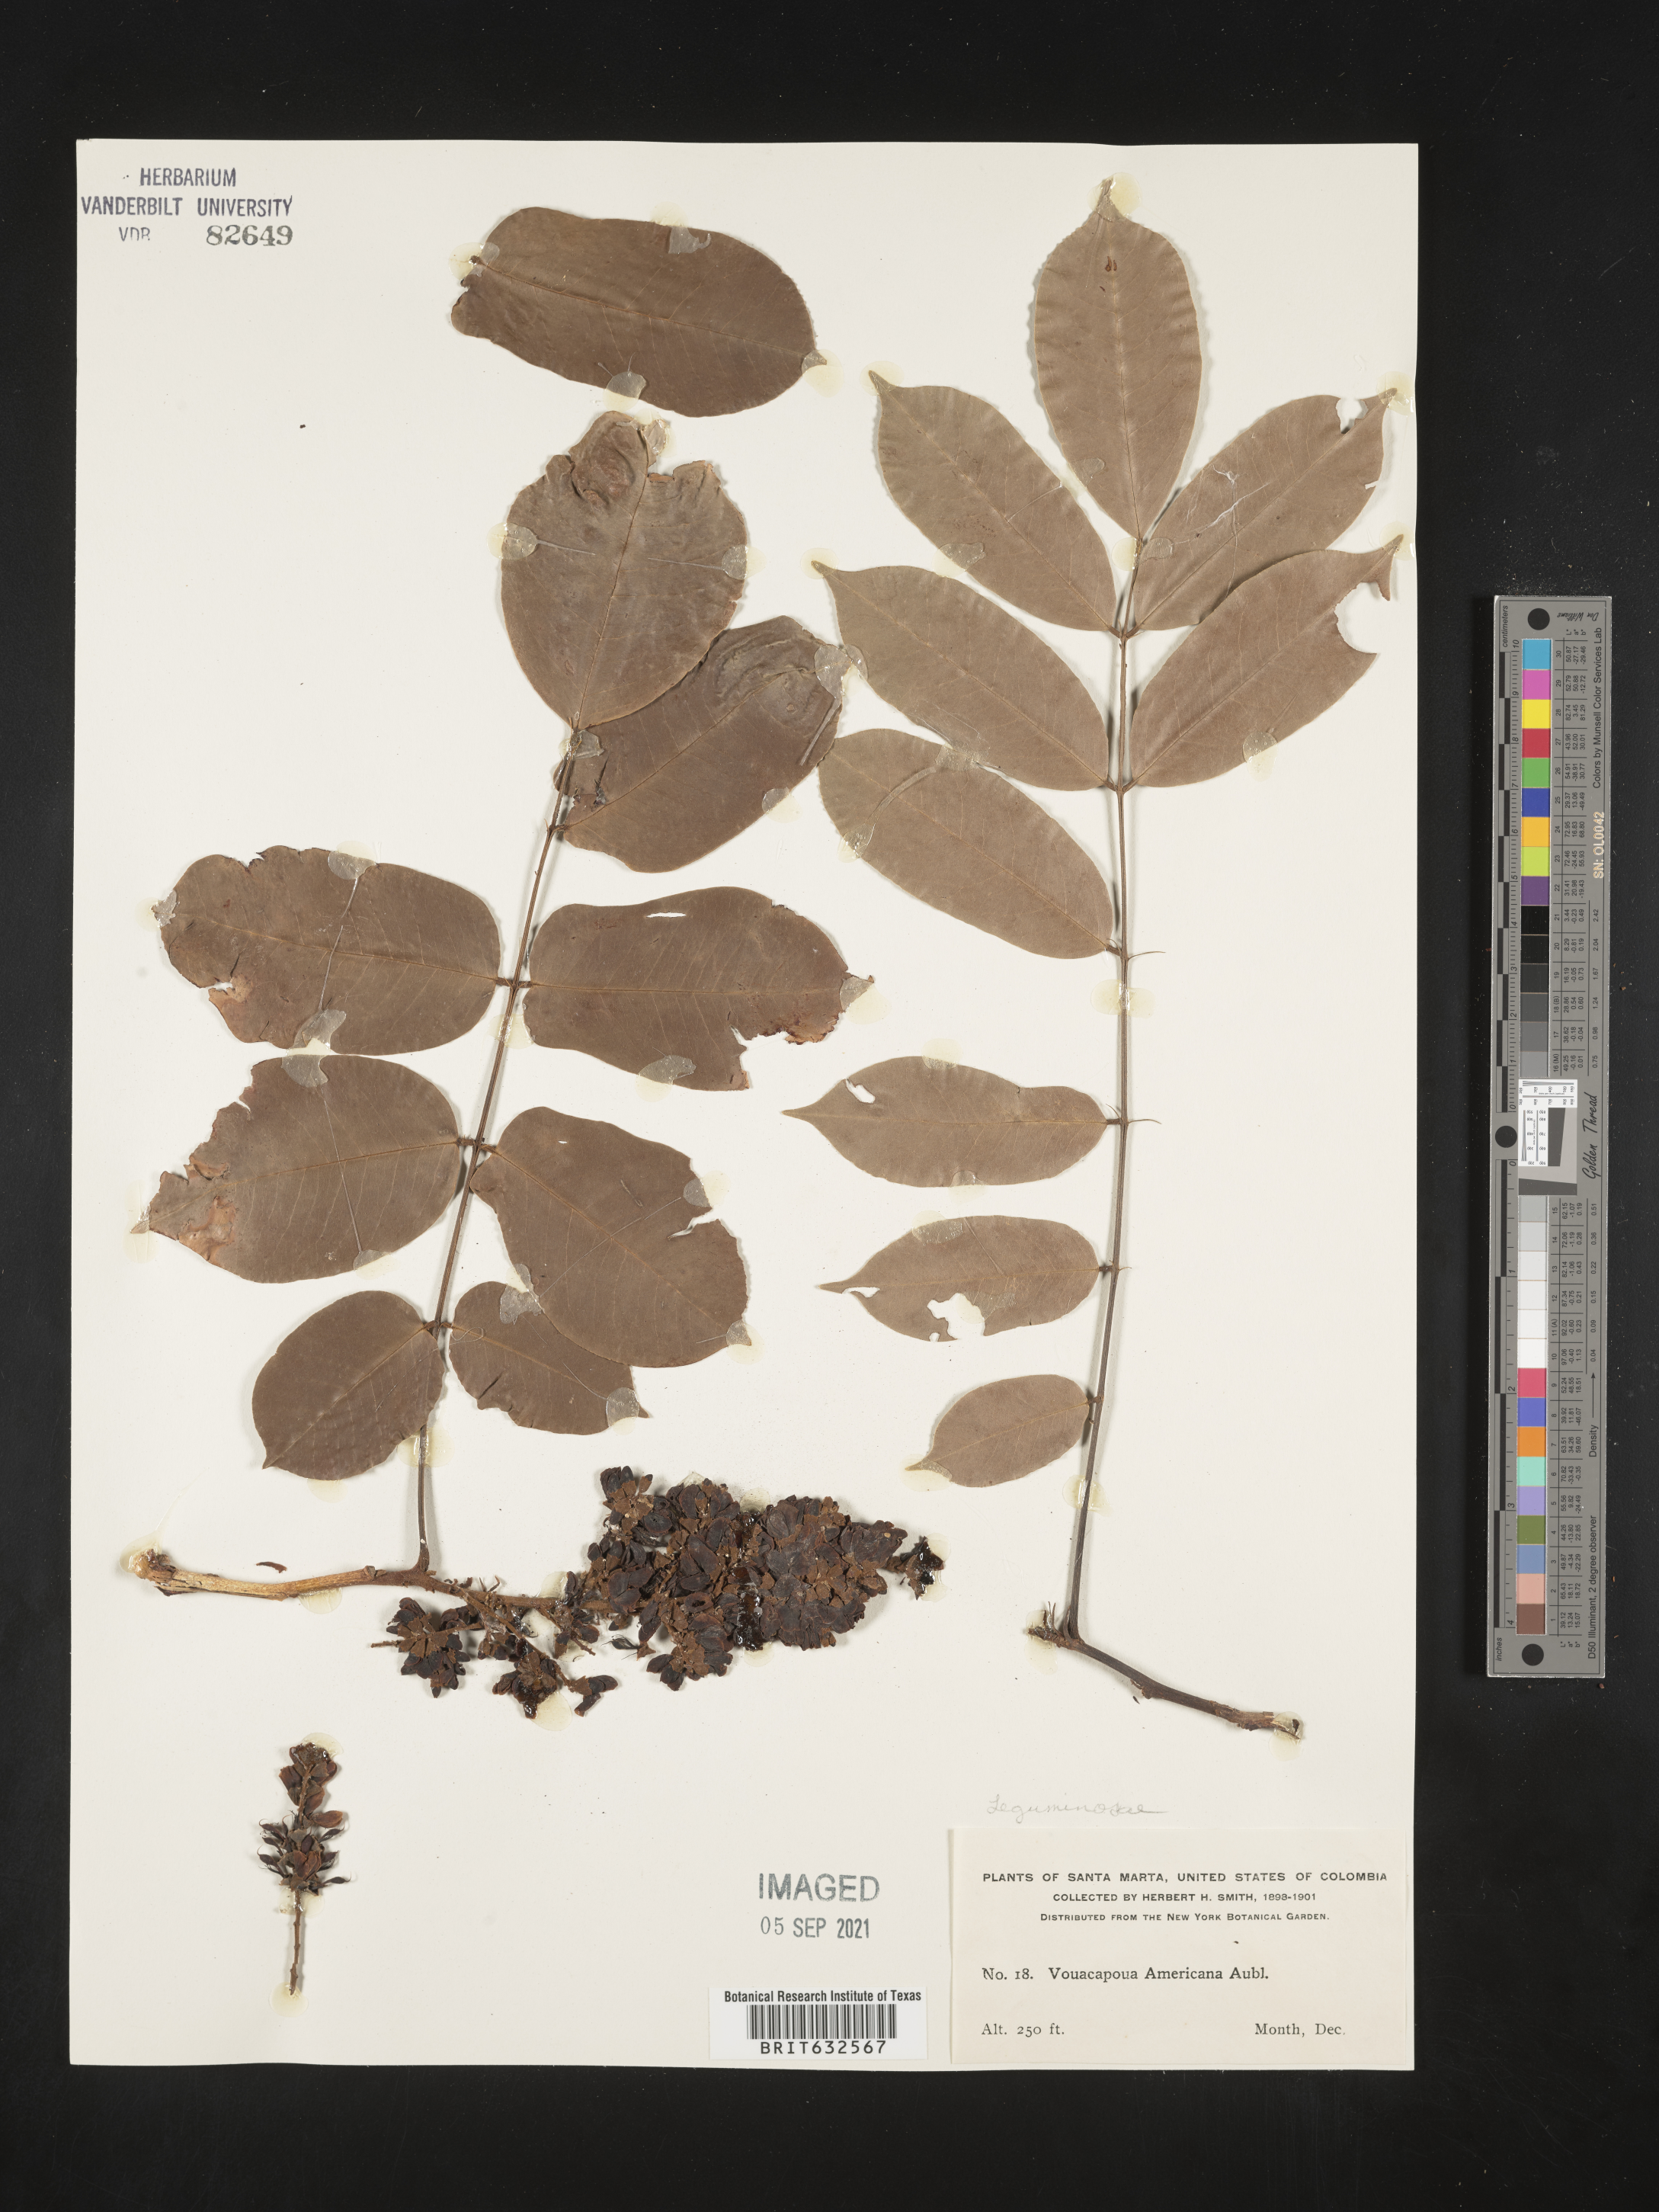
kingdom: Plantae
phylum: Tracheophyta
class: Magnoliopsida
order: Fabales
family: Fabaceae
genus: Vouacapoua
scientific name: Vouacapoua americana
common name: Partridgewood
